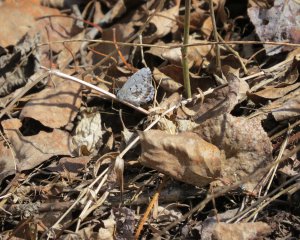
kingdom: Animalia
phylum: Arthropoda
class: Insecta
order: Lepidoptera
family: Lycaenidae
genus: Celastrina
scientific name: Celastrina lucia
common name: Northern Spring Azure
